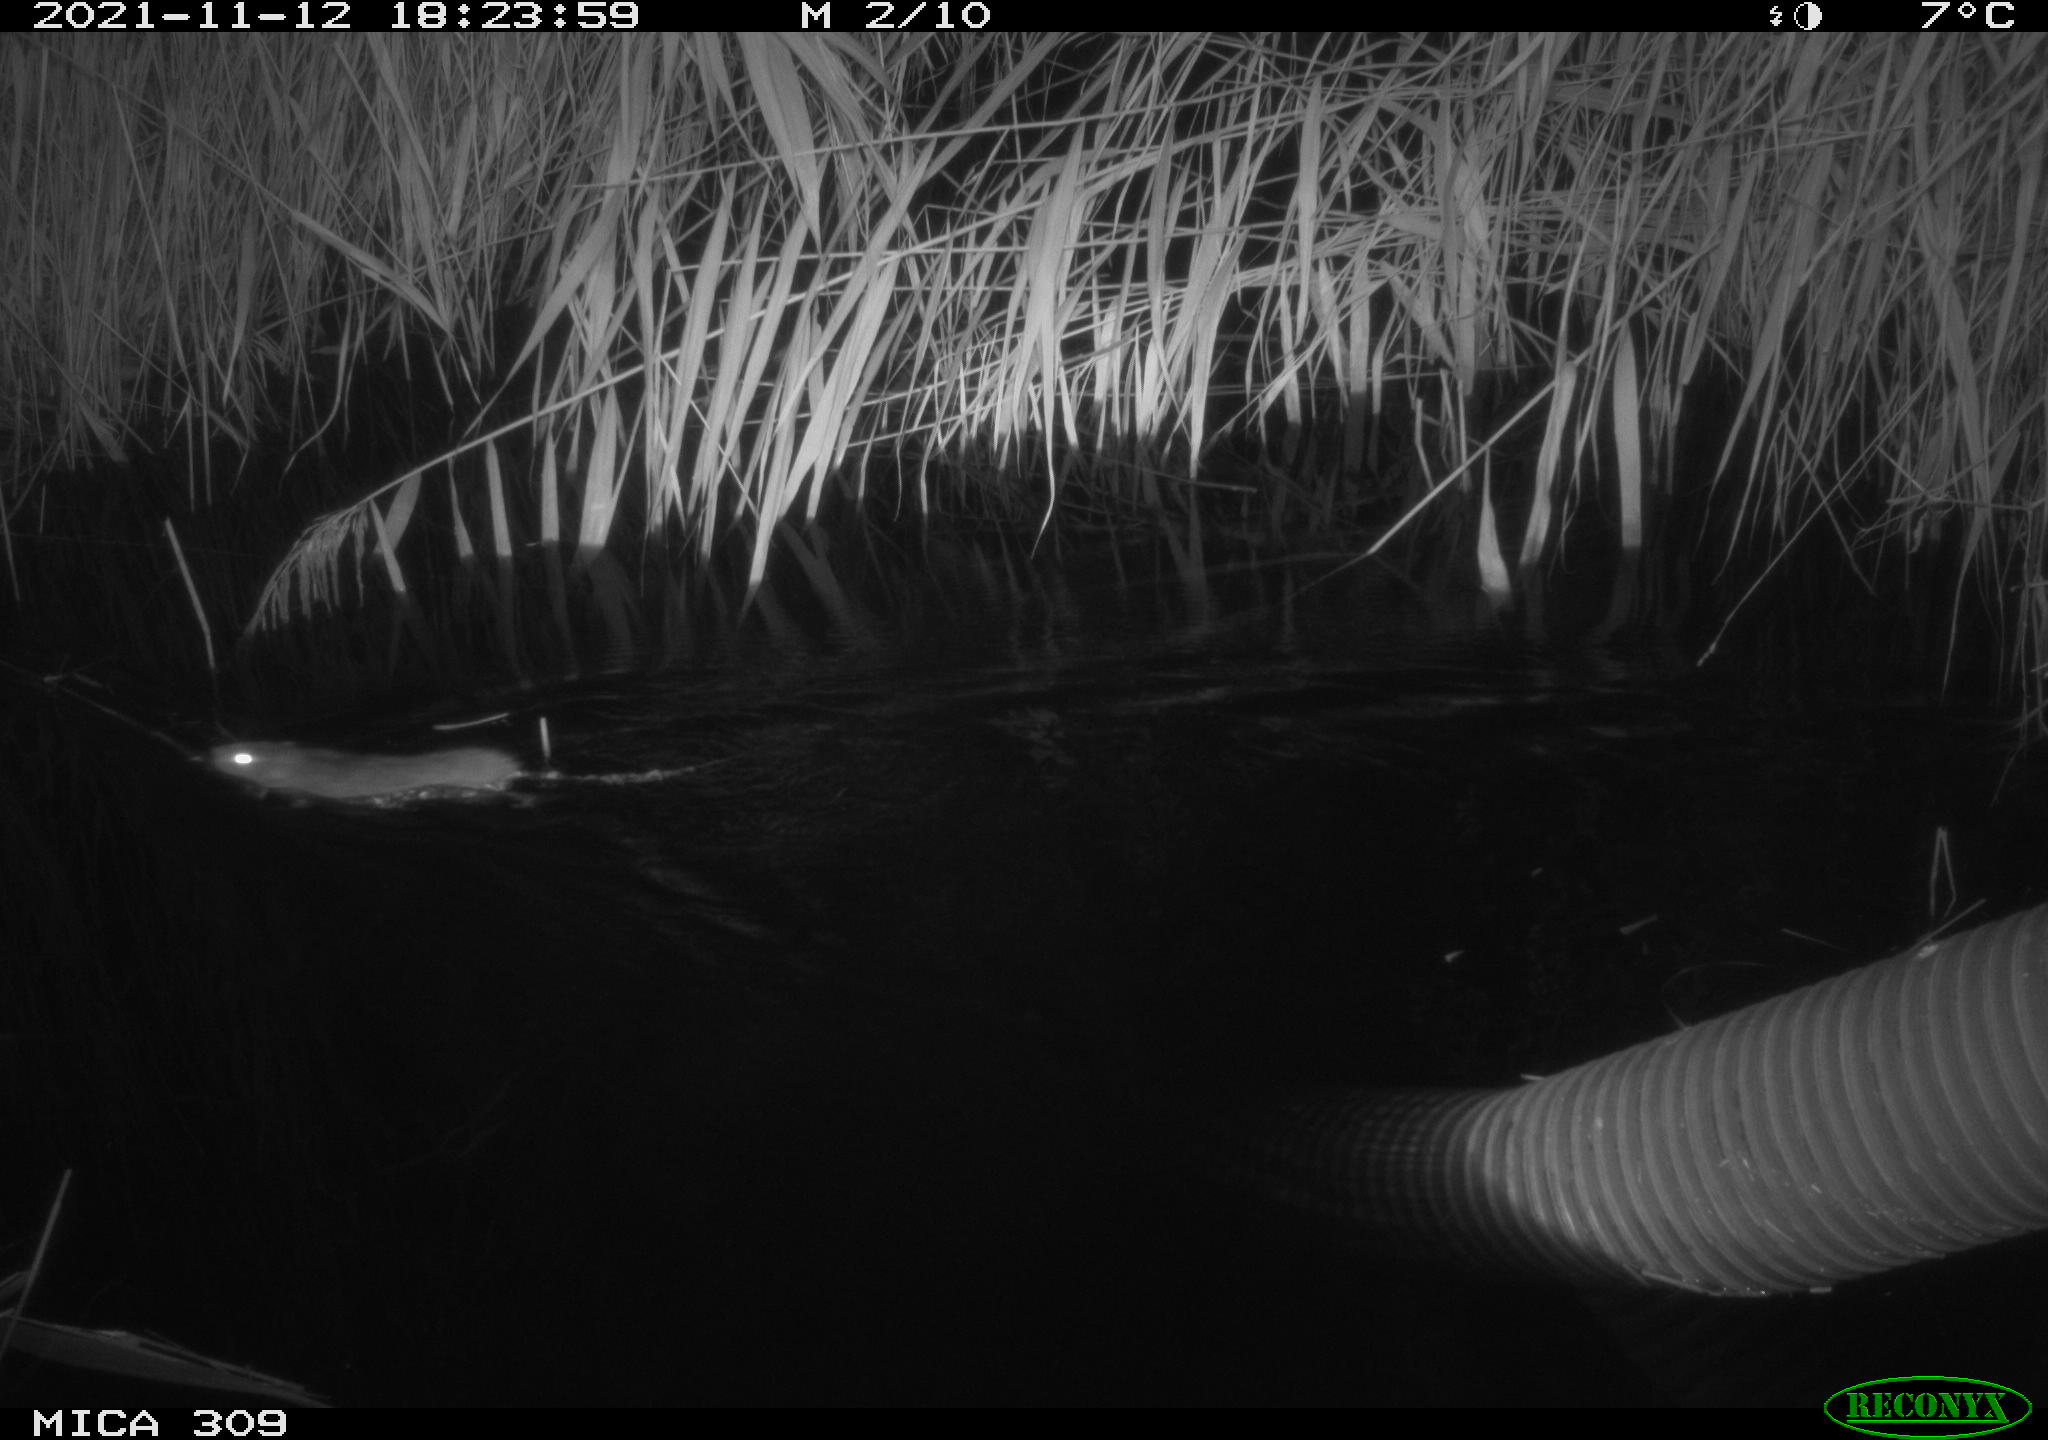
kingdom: Animalia
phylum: Chordata
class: Mammalia
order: Rodentia
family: Muridae
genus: Rattus
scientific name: Rattus norvegicus
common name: Brown rat
